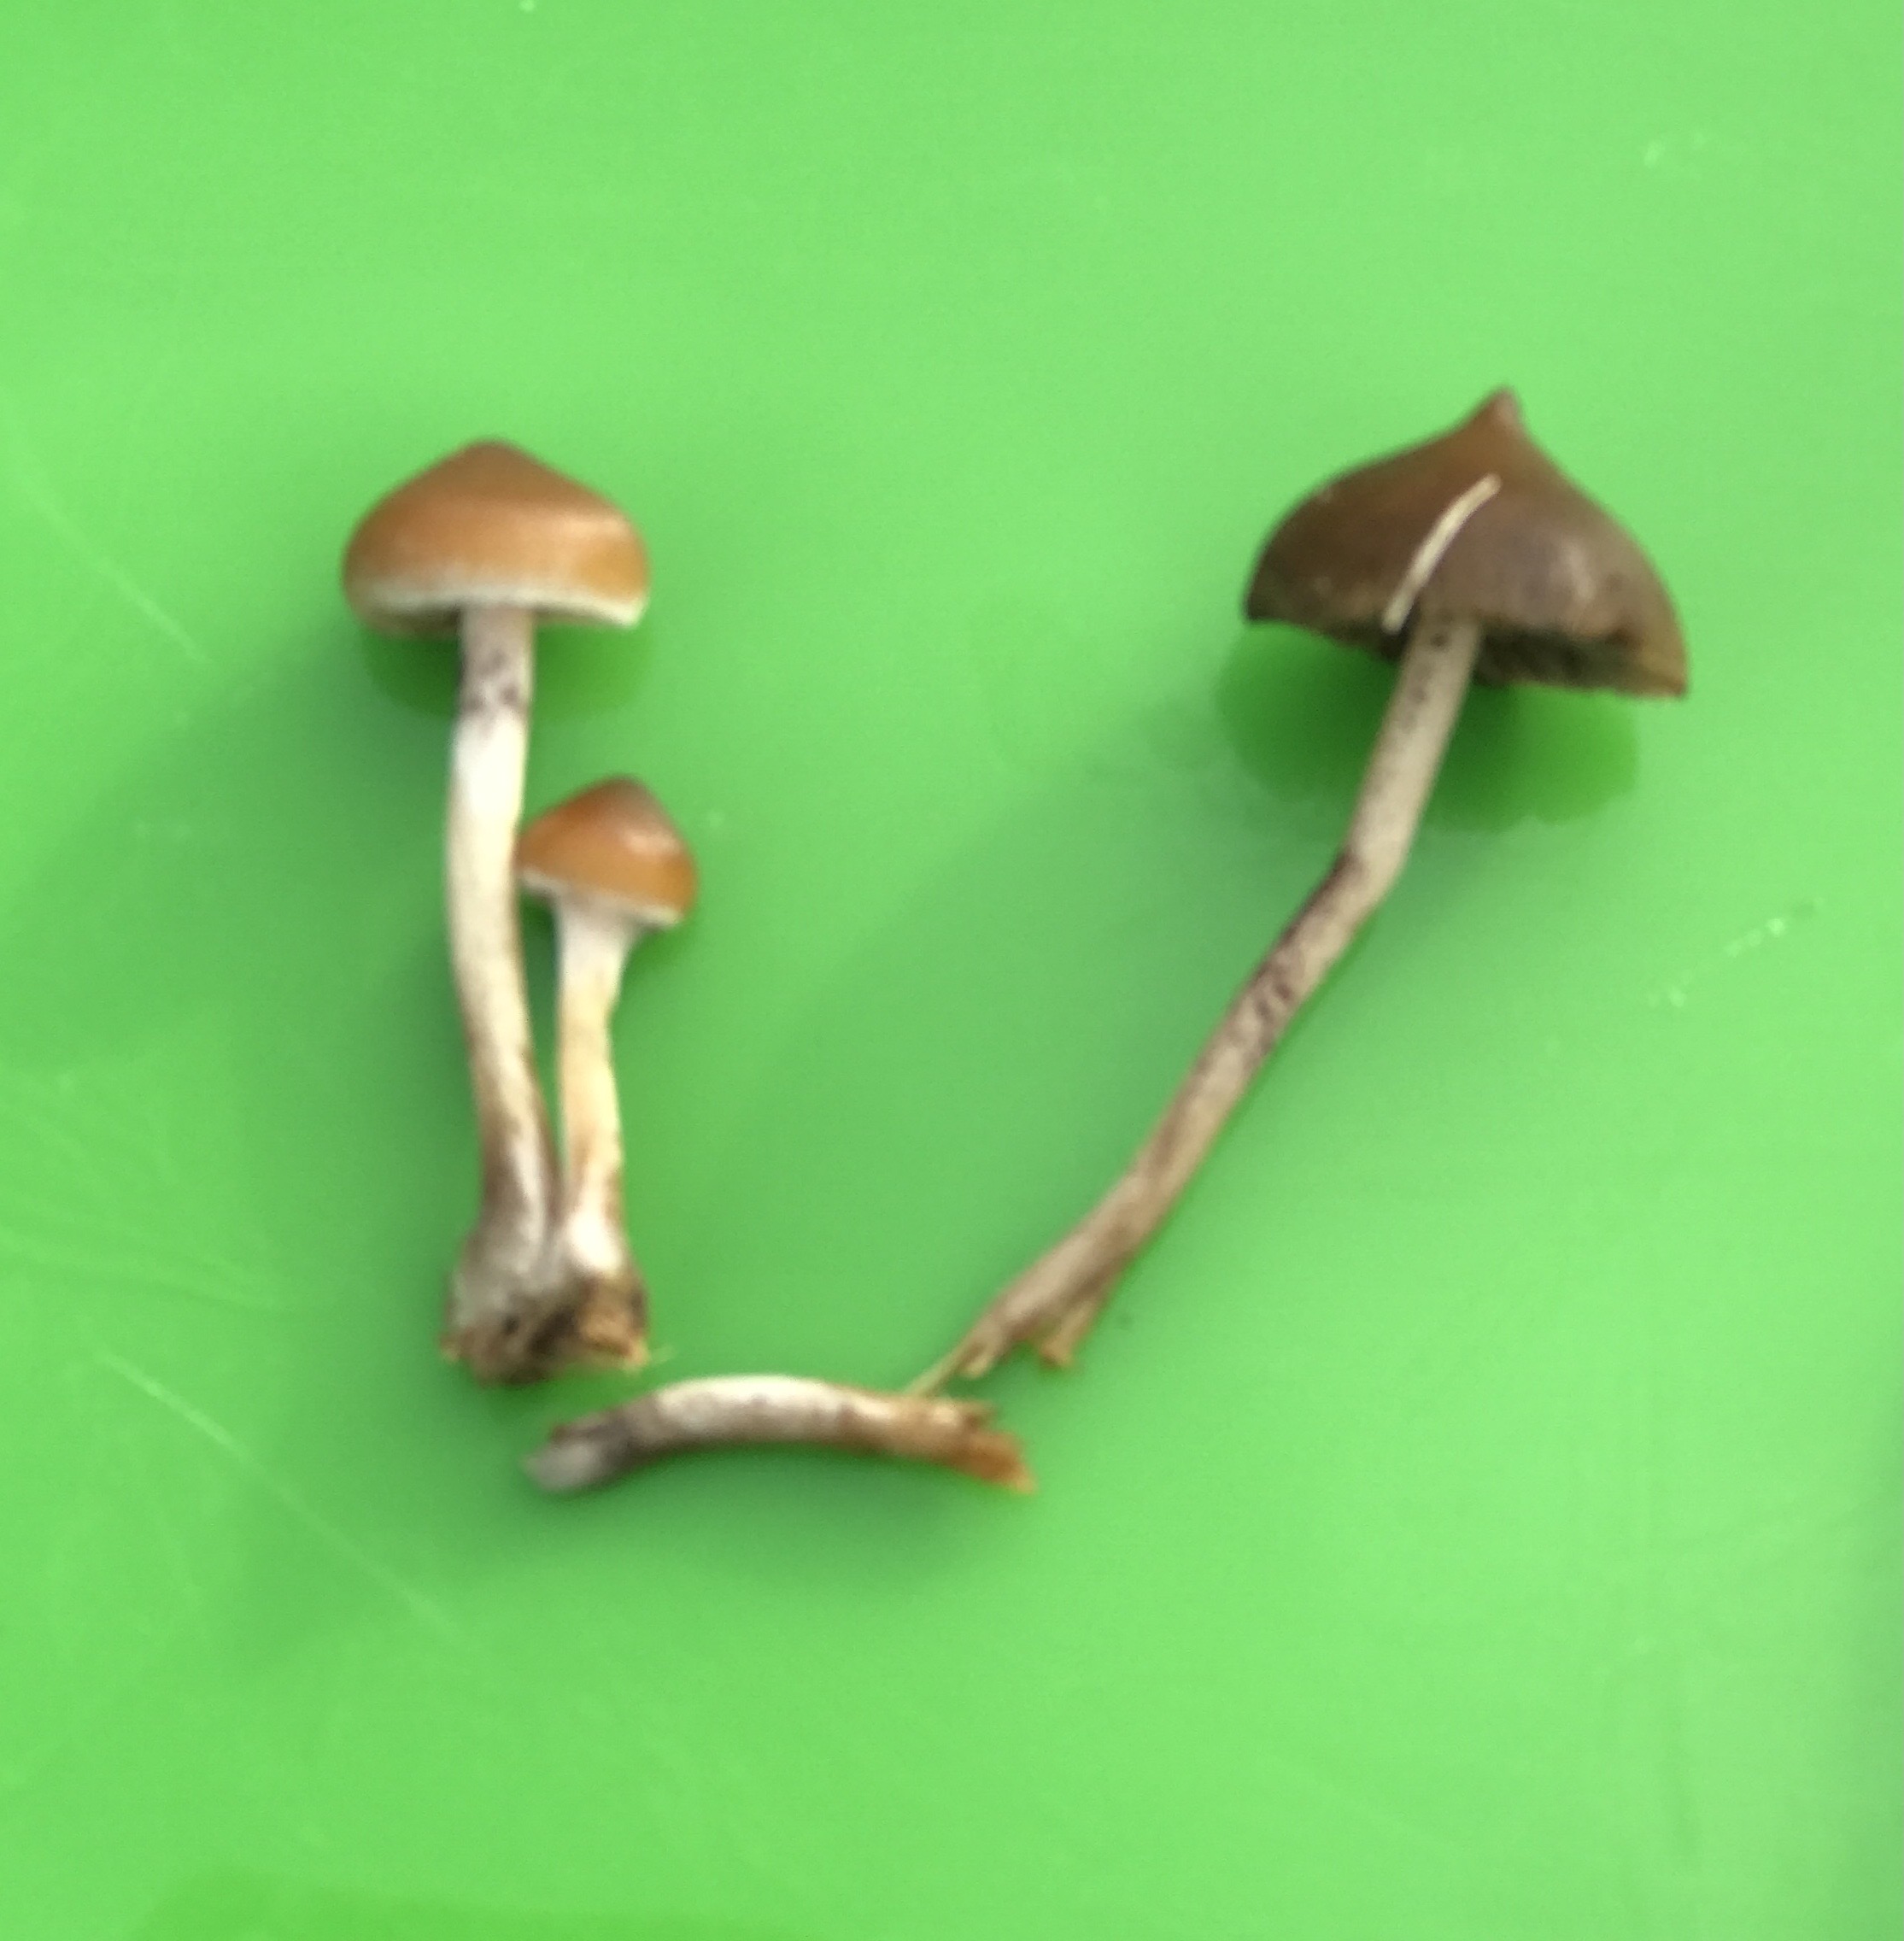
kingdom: Fungi
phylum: Basidiomycota
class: Agaricomycetes
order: Agaricales
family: Hymenogastraceae
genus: Psilocybe
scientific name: Psilocybe fimetaria
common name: prægtig nøgenhat
